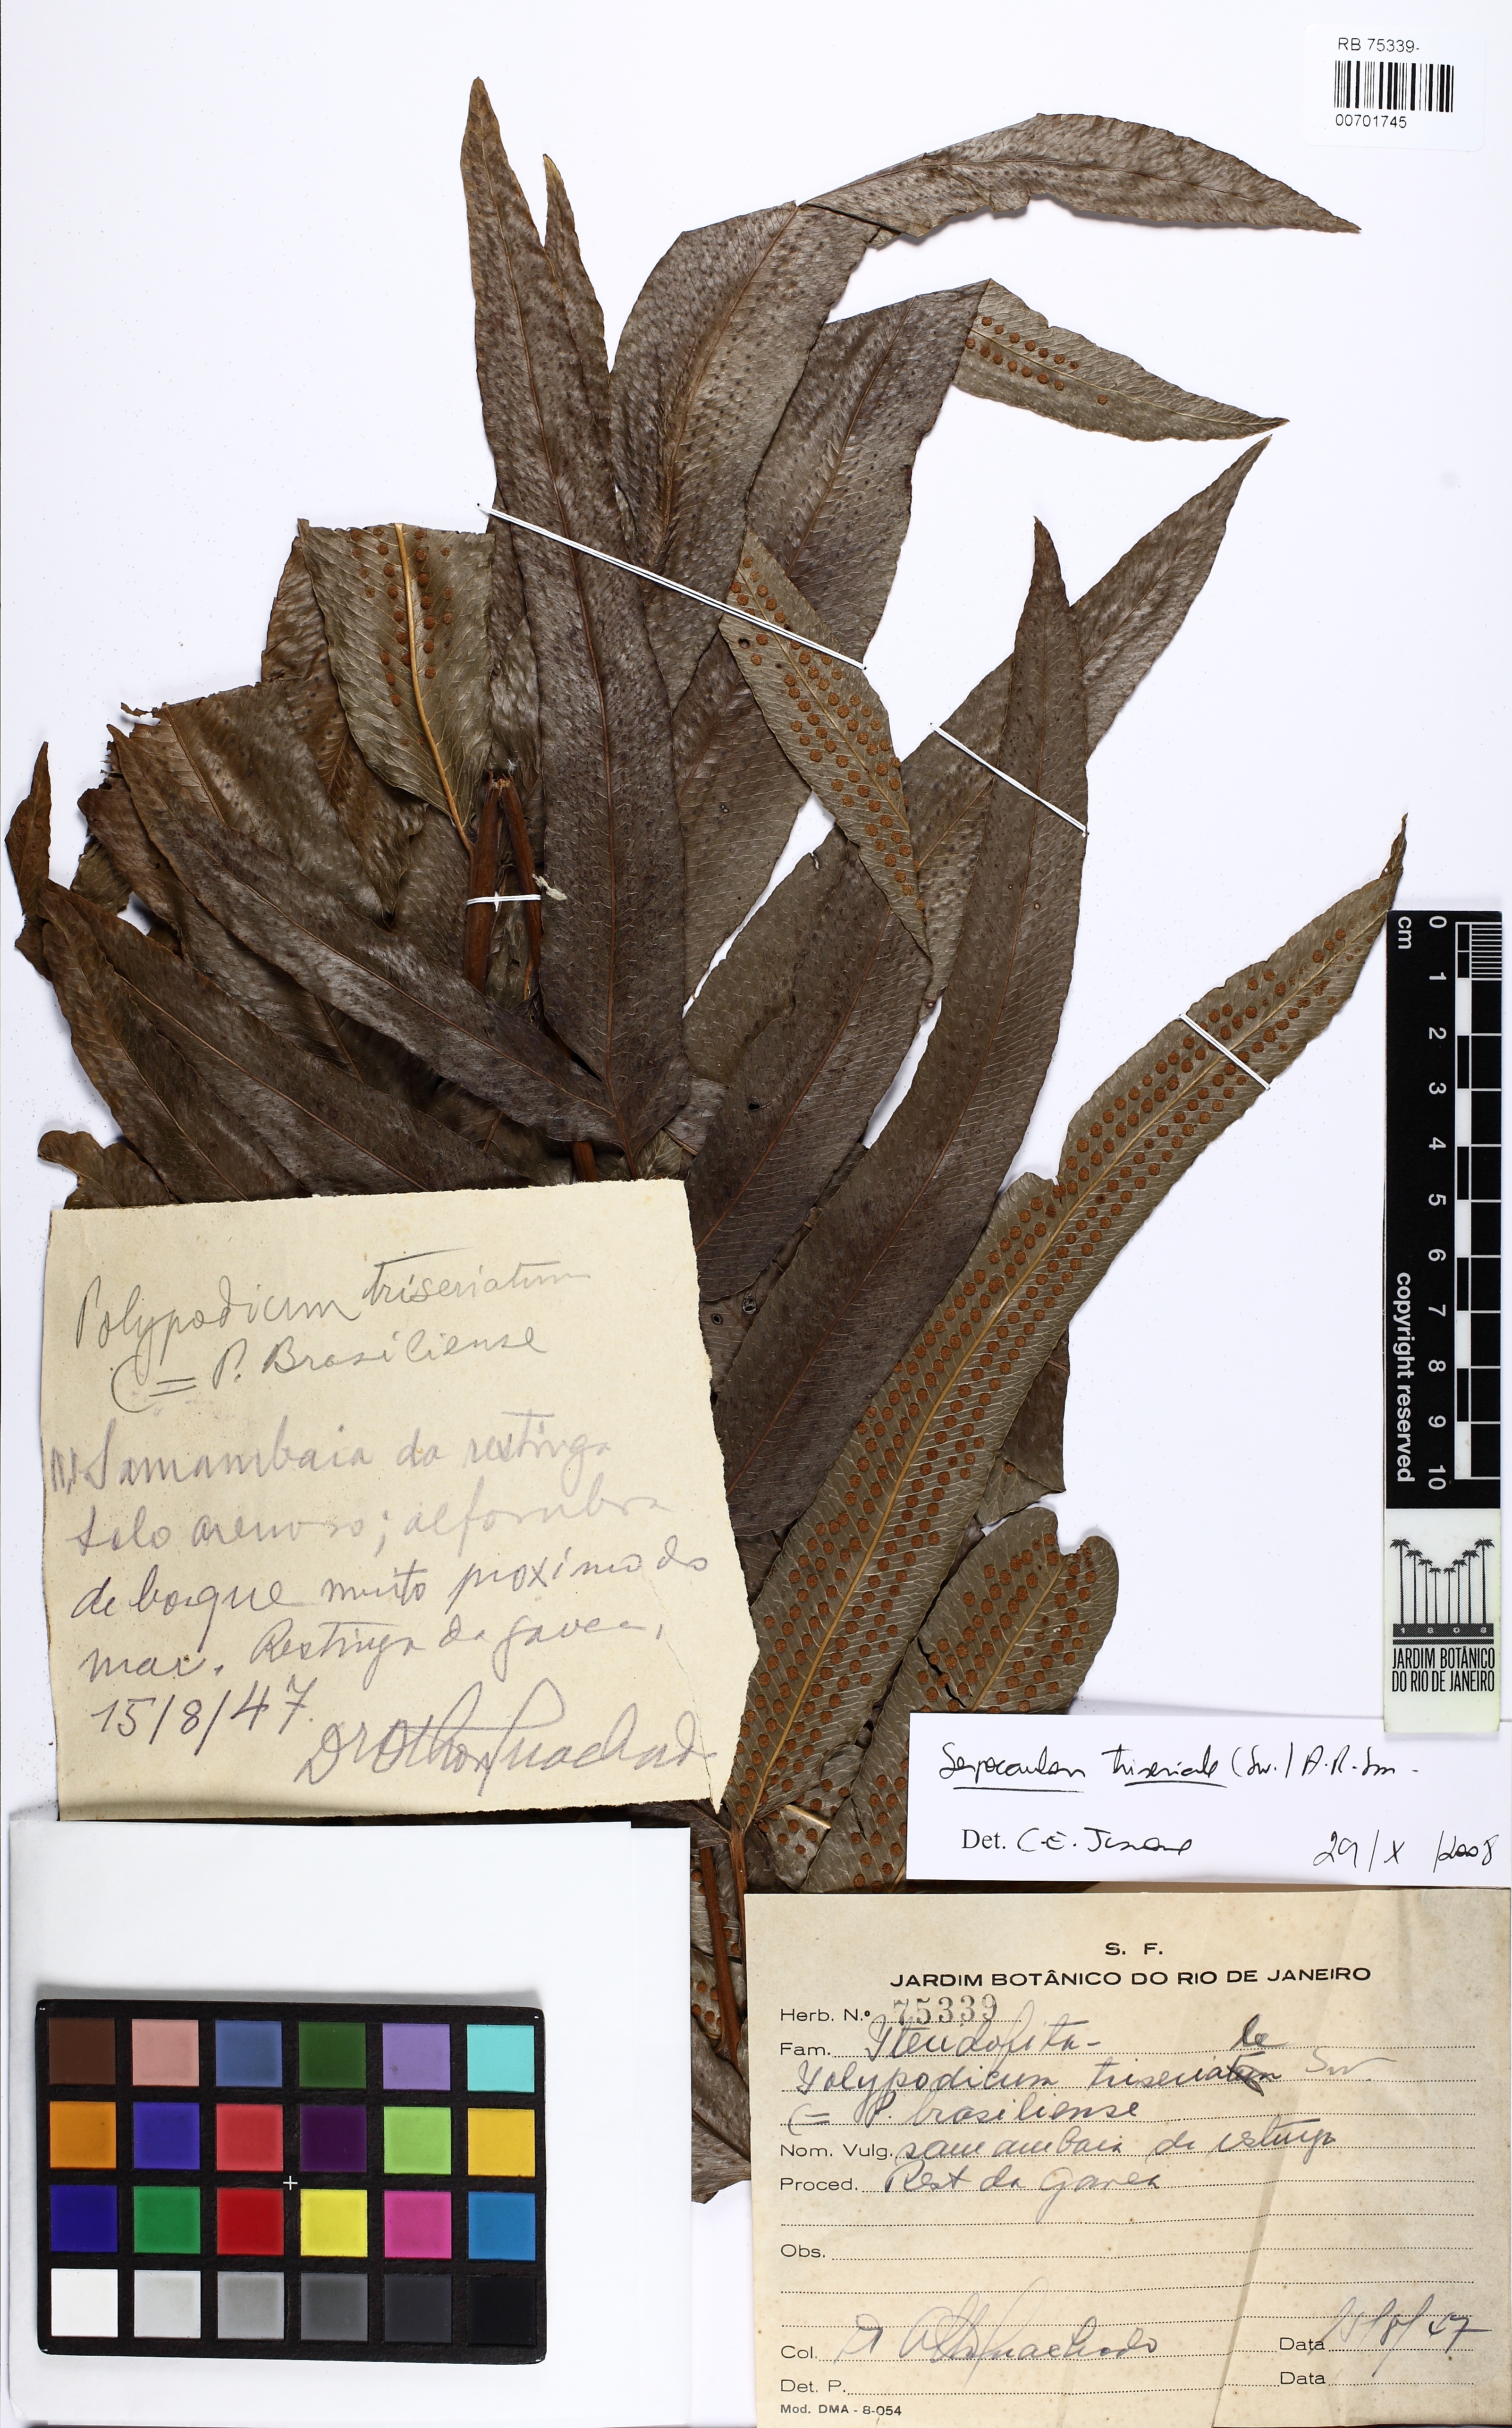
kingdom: Plantae
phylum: Tracheophyta
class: Polypodiopsida
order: Polypodiales
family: Polypodiaceae
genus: Serpocaulon
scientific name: Serpocaulon triseriale
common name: Angle-vein fern
